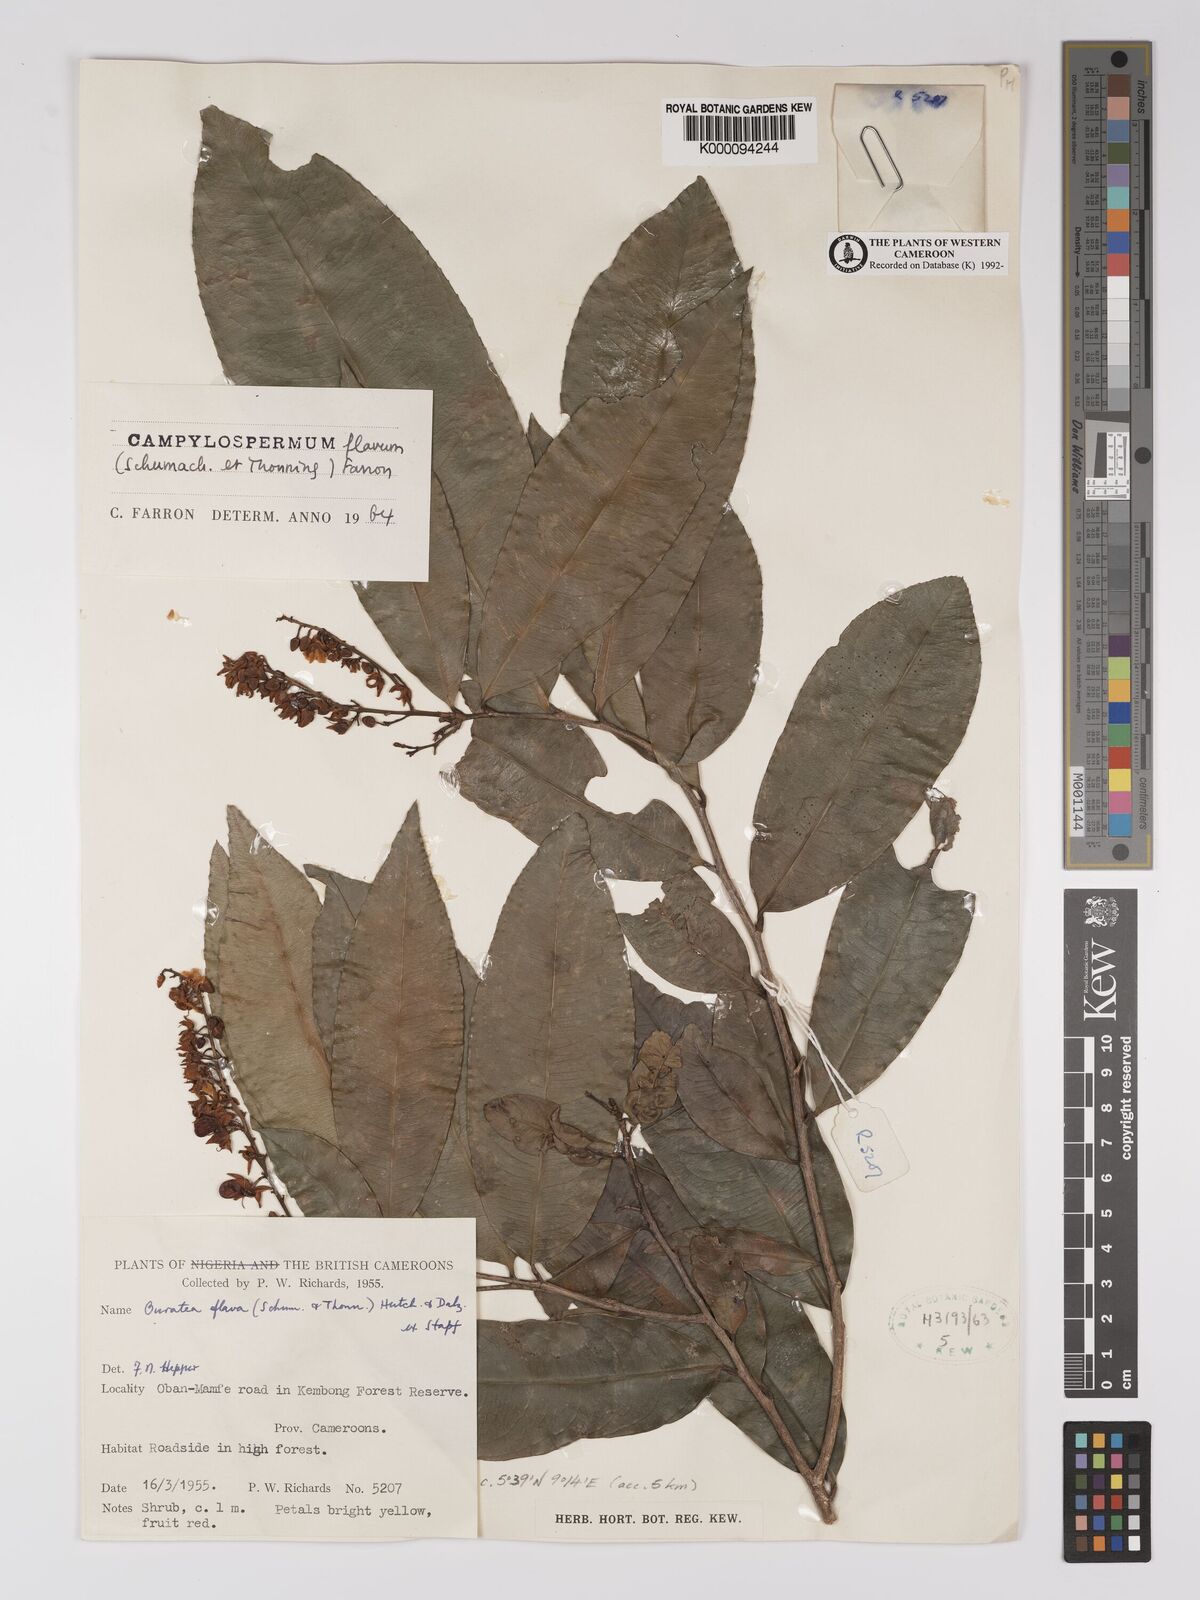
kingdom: Plantae
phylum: Tracheophyta
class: Magnoliopsida
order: Malpighiales
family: Ochnaceae
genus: Campylospermum
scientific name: Campylospermum flavum
